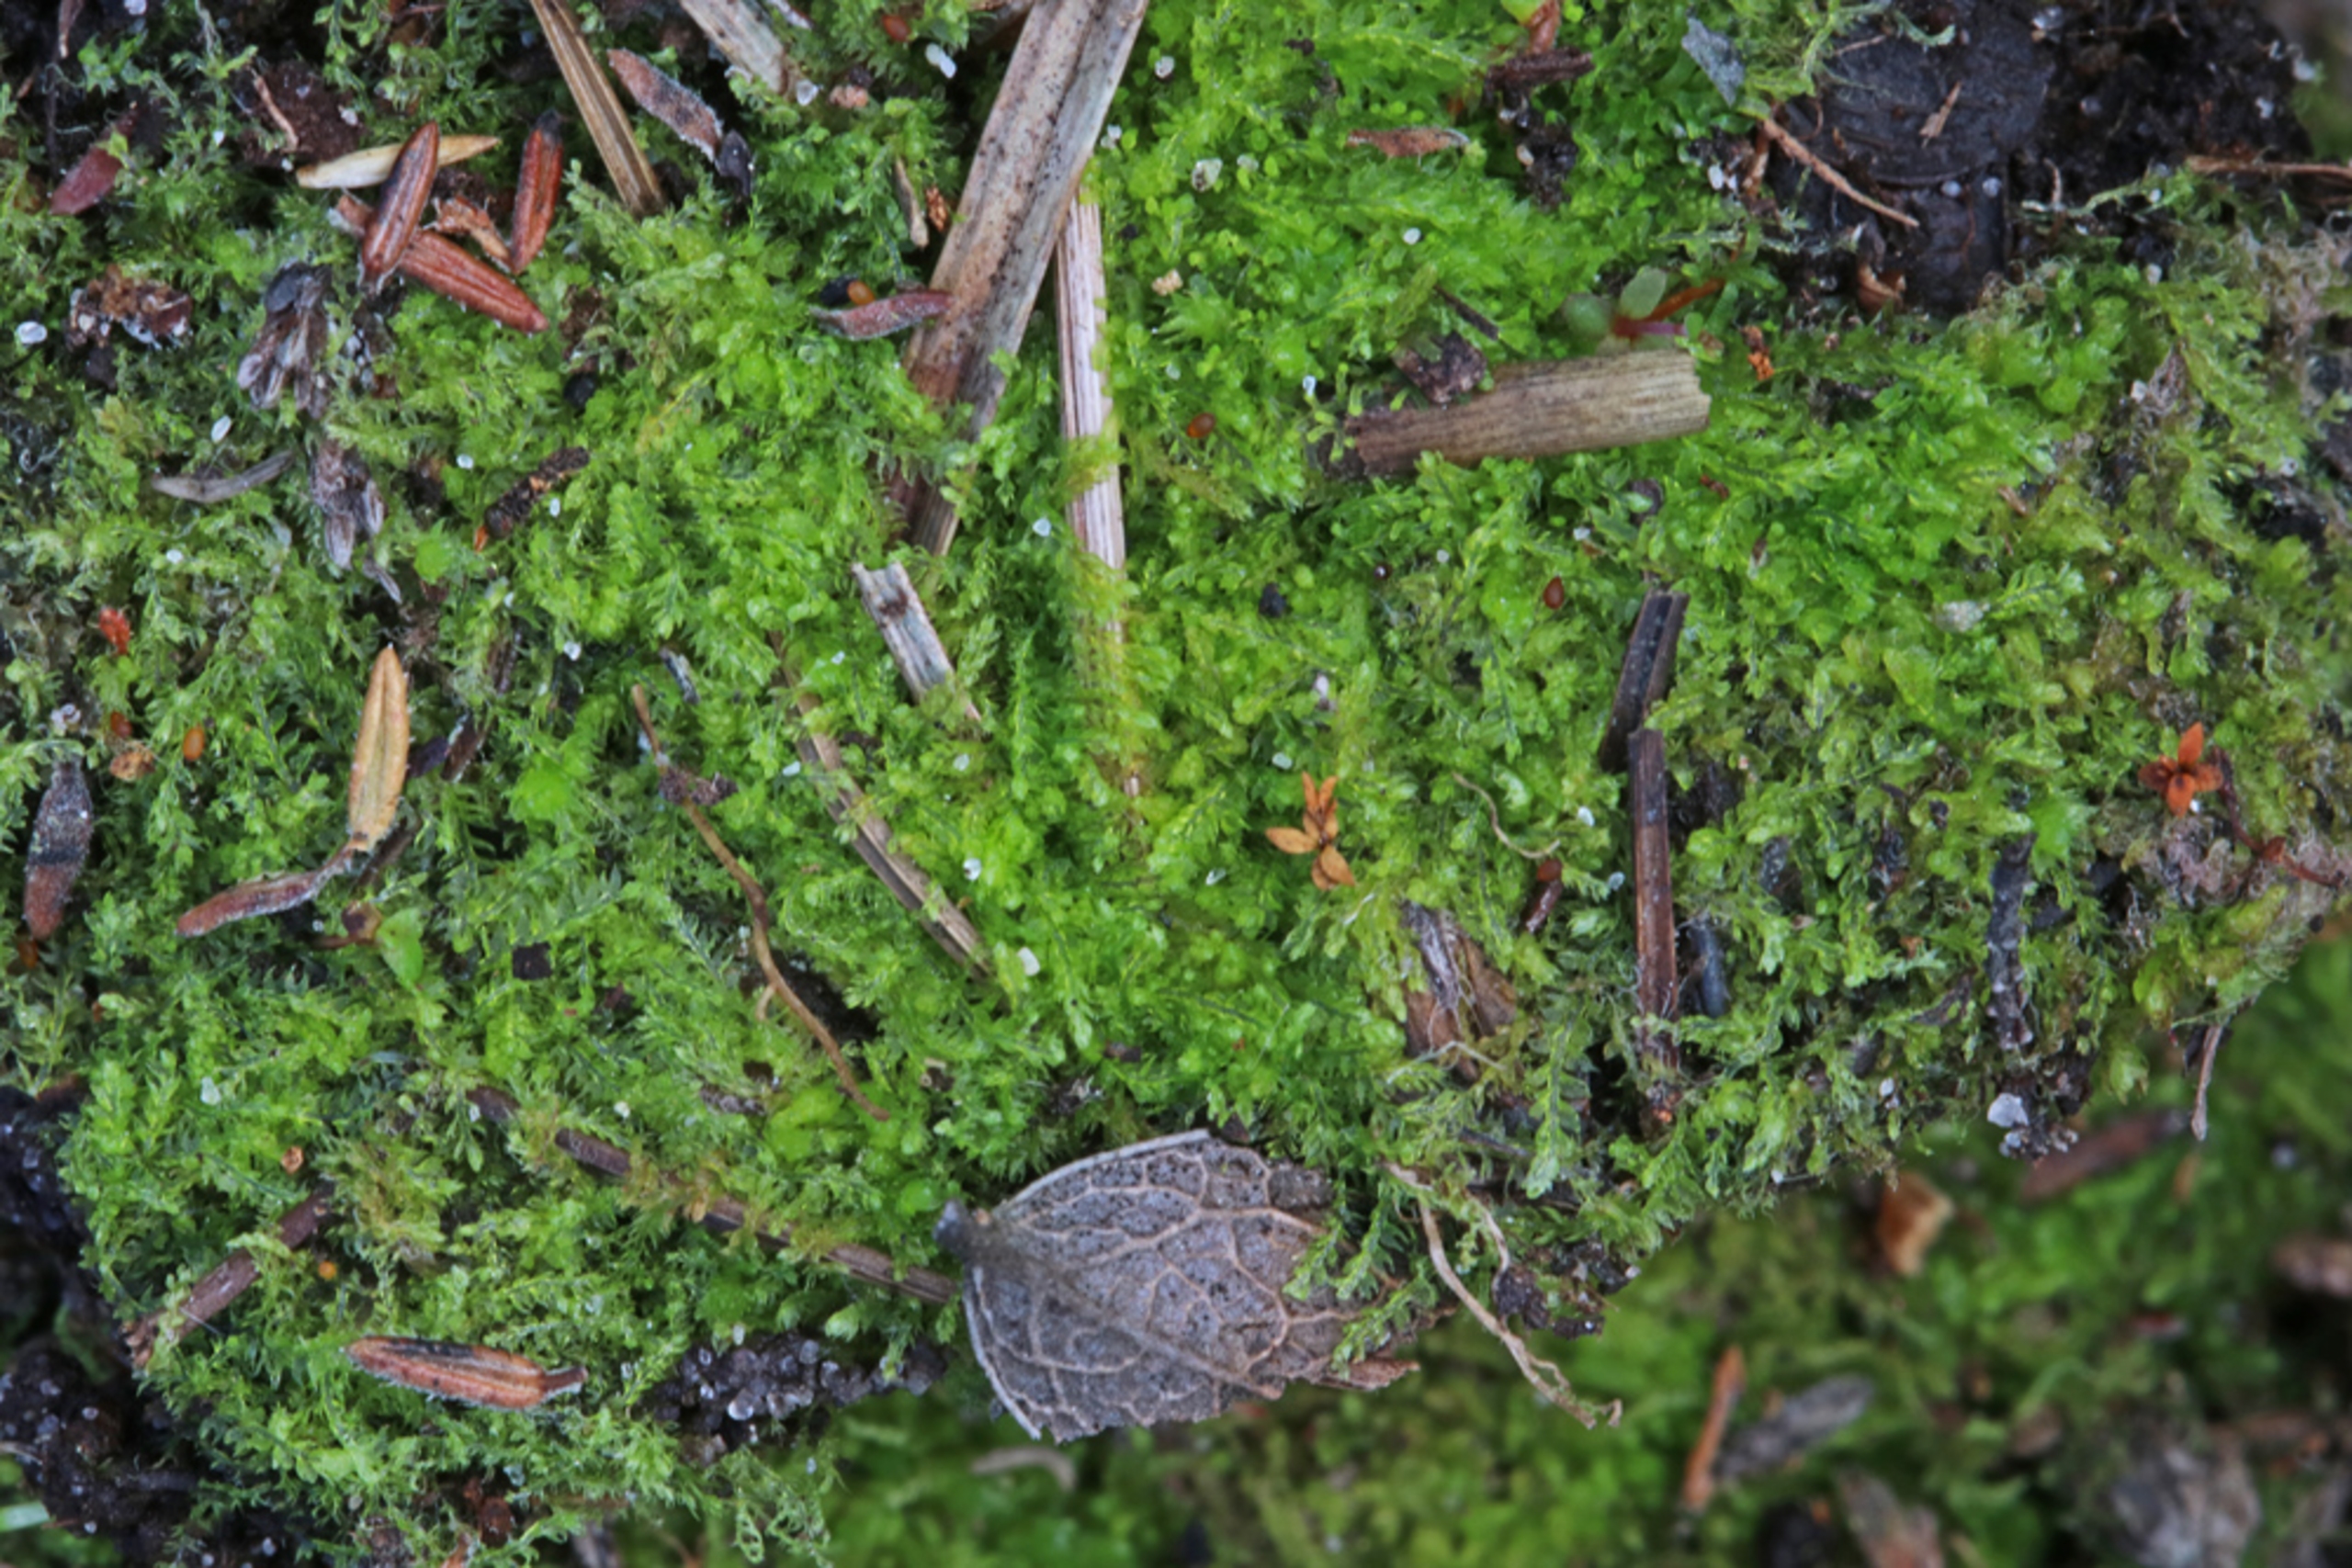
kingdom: Plantae
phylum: Marchantiophyta
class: Jungermanniopsida
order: Jungermanniales
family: Cephaloziaceae
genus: Cephalozia
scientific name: Cephalozia bicuspidata
